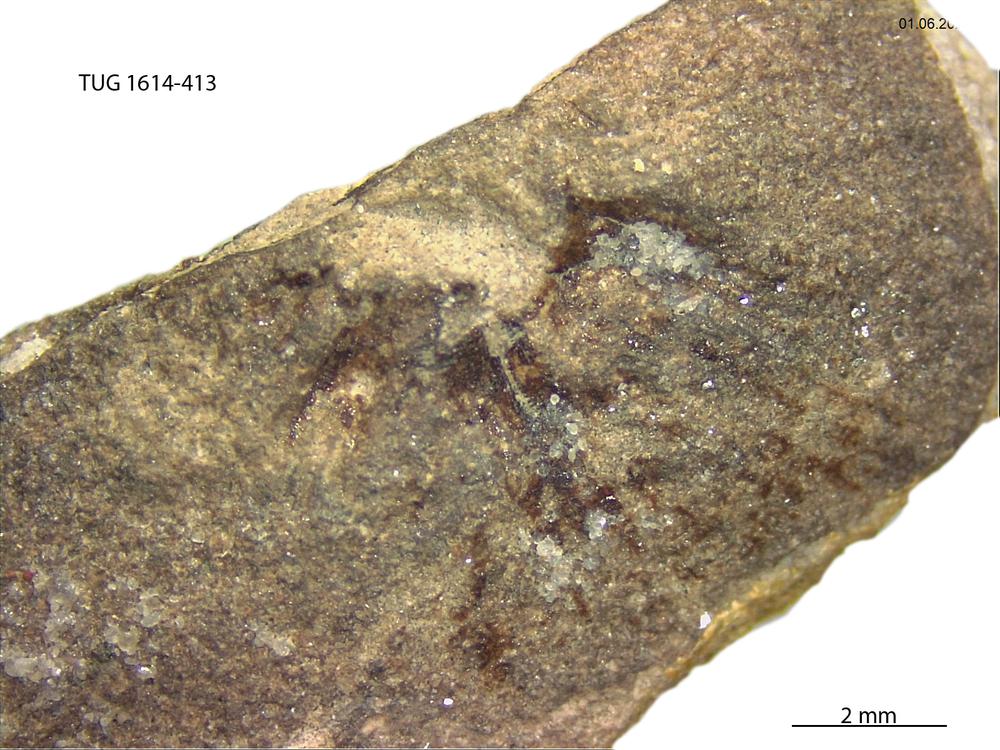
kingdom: Animalia
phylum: Mollusca
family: Scenellidae
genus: Scenella
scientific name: Scenella
